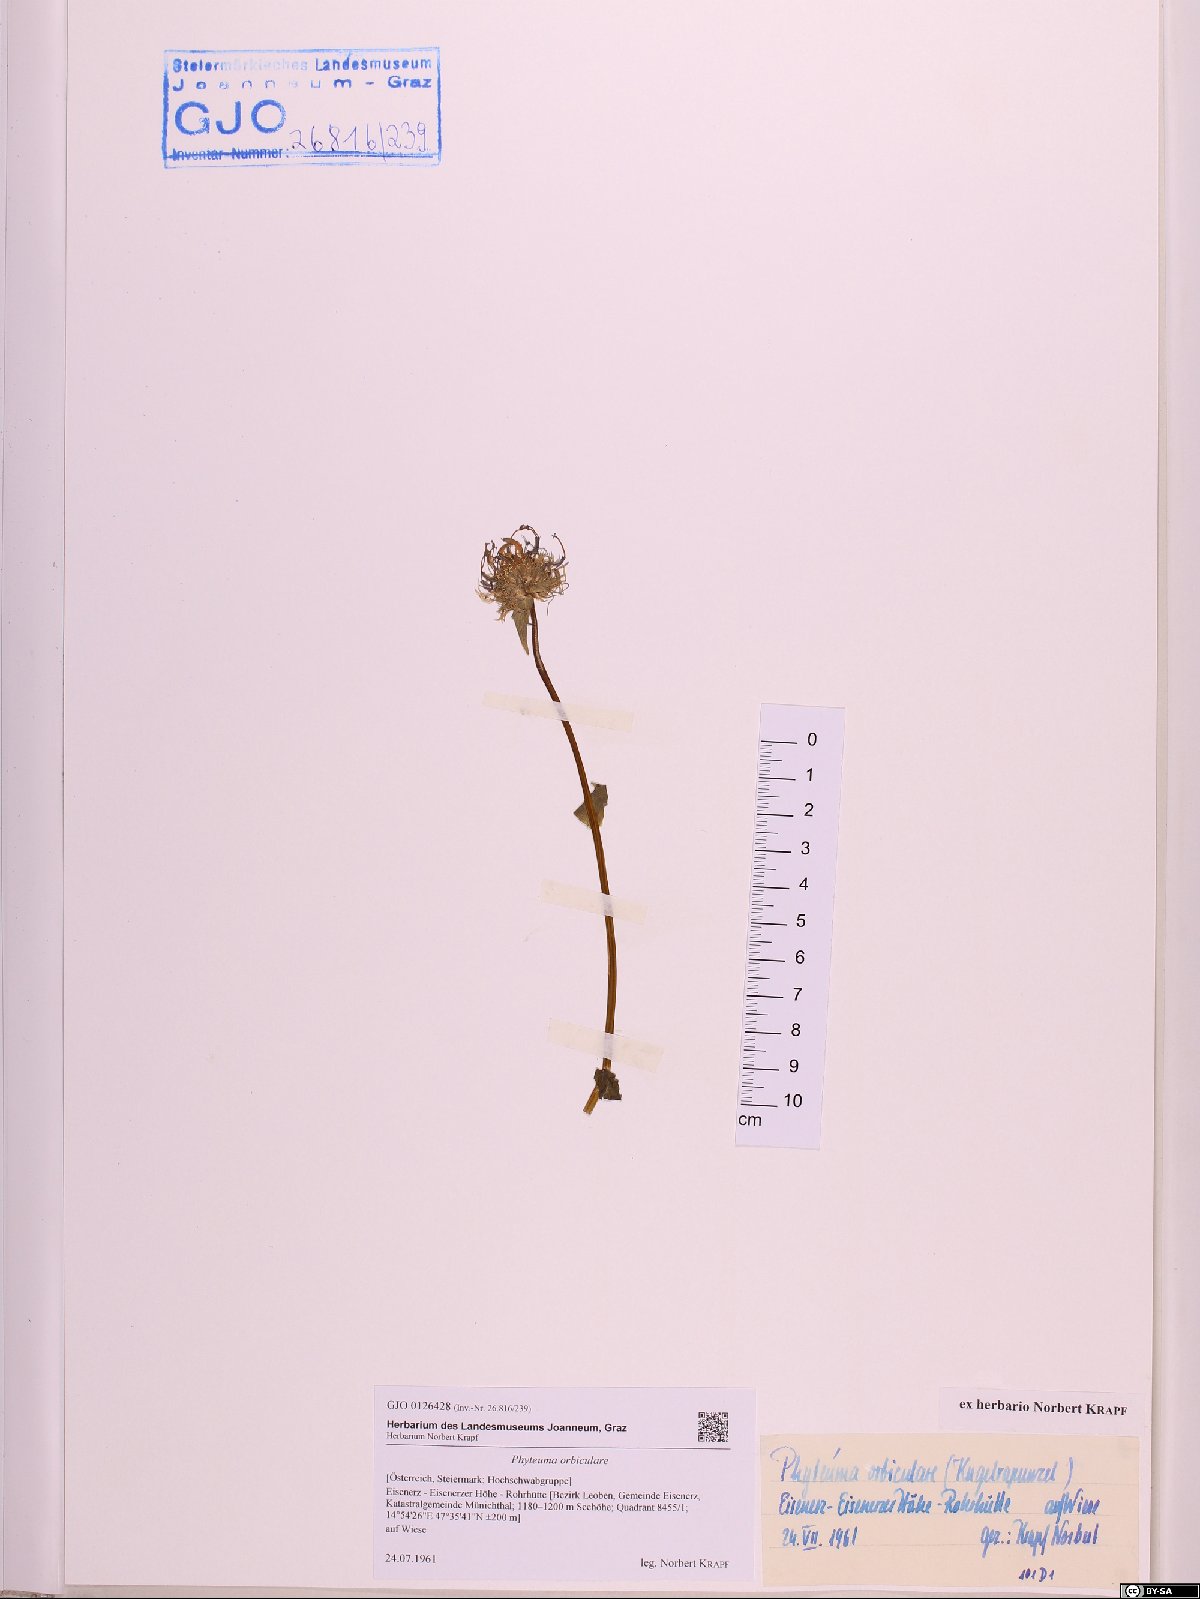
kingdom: Plantae
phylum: Tracheophyta
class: Magnoliopsida
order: Asterales
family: Campanulaceae
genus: Phyteuma
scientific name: Phyteuma orbiculare
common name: Round-headed rampion
